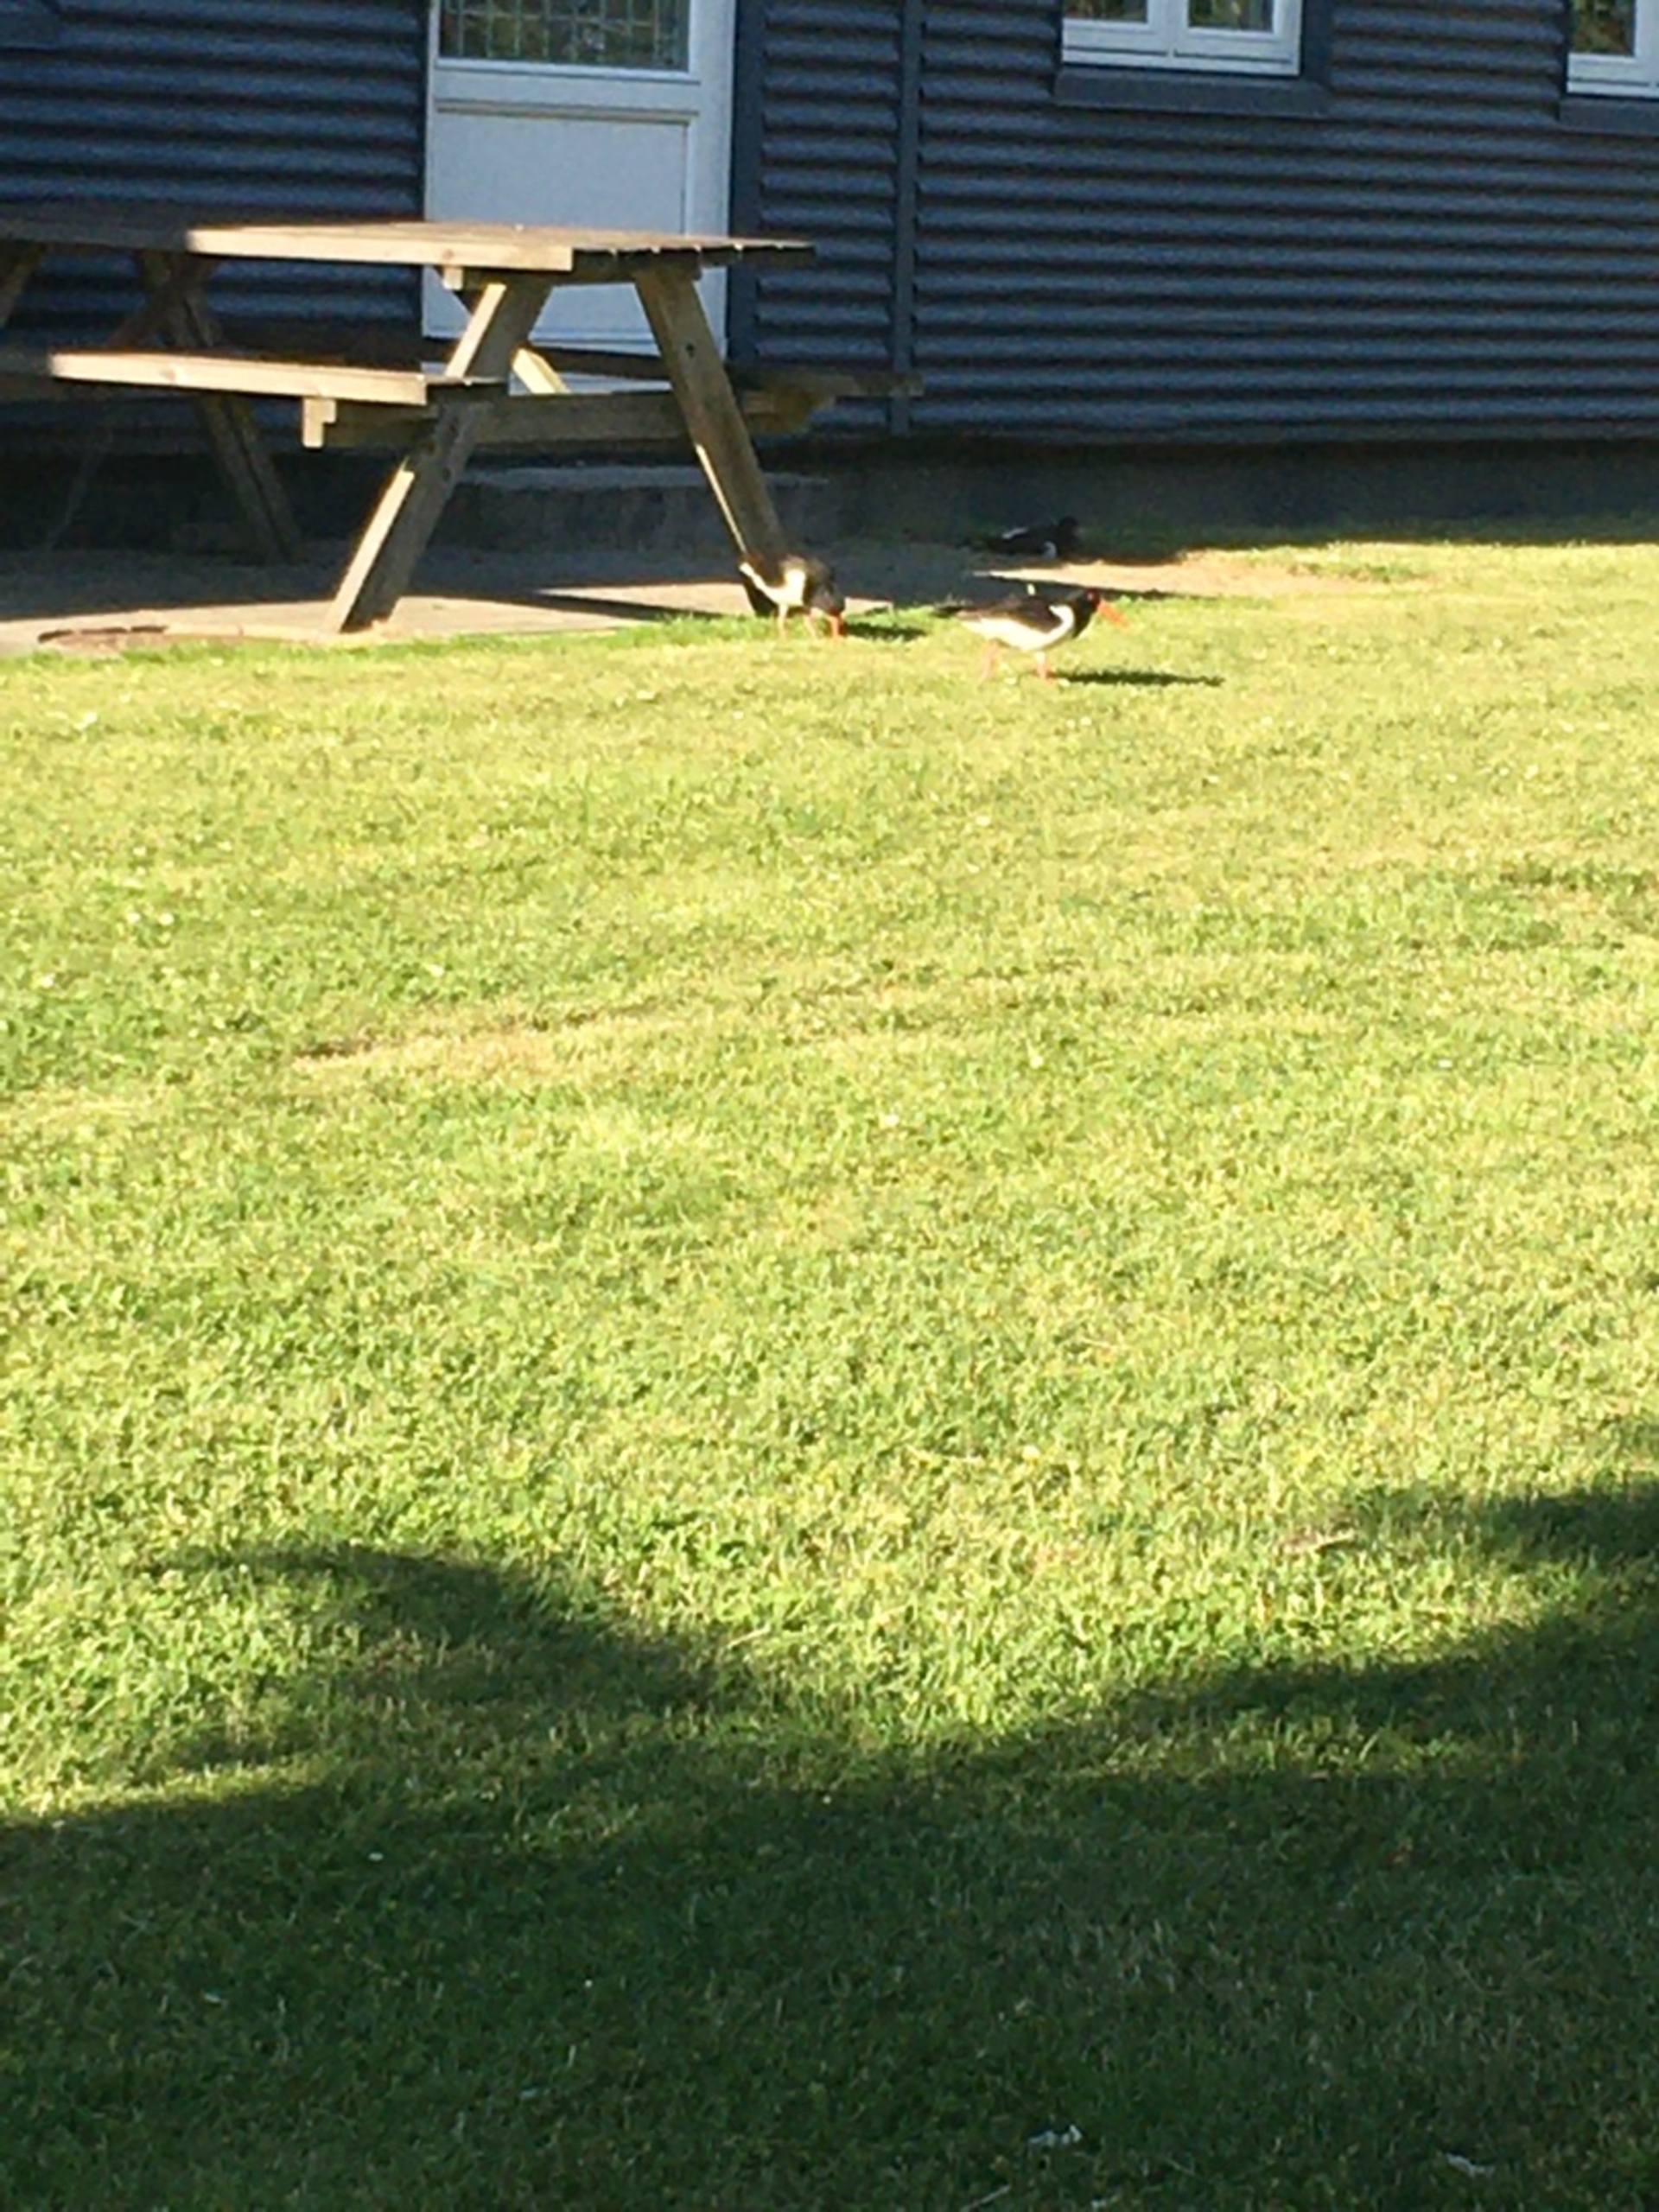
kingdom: Animalia
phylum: Chordata
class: Aves
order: Charadriiformes
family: Haematopodidae
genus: Haematopus
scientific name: Haematopus ostralegus
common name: Strandskade
